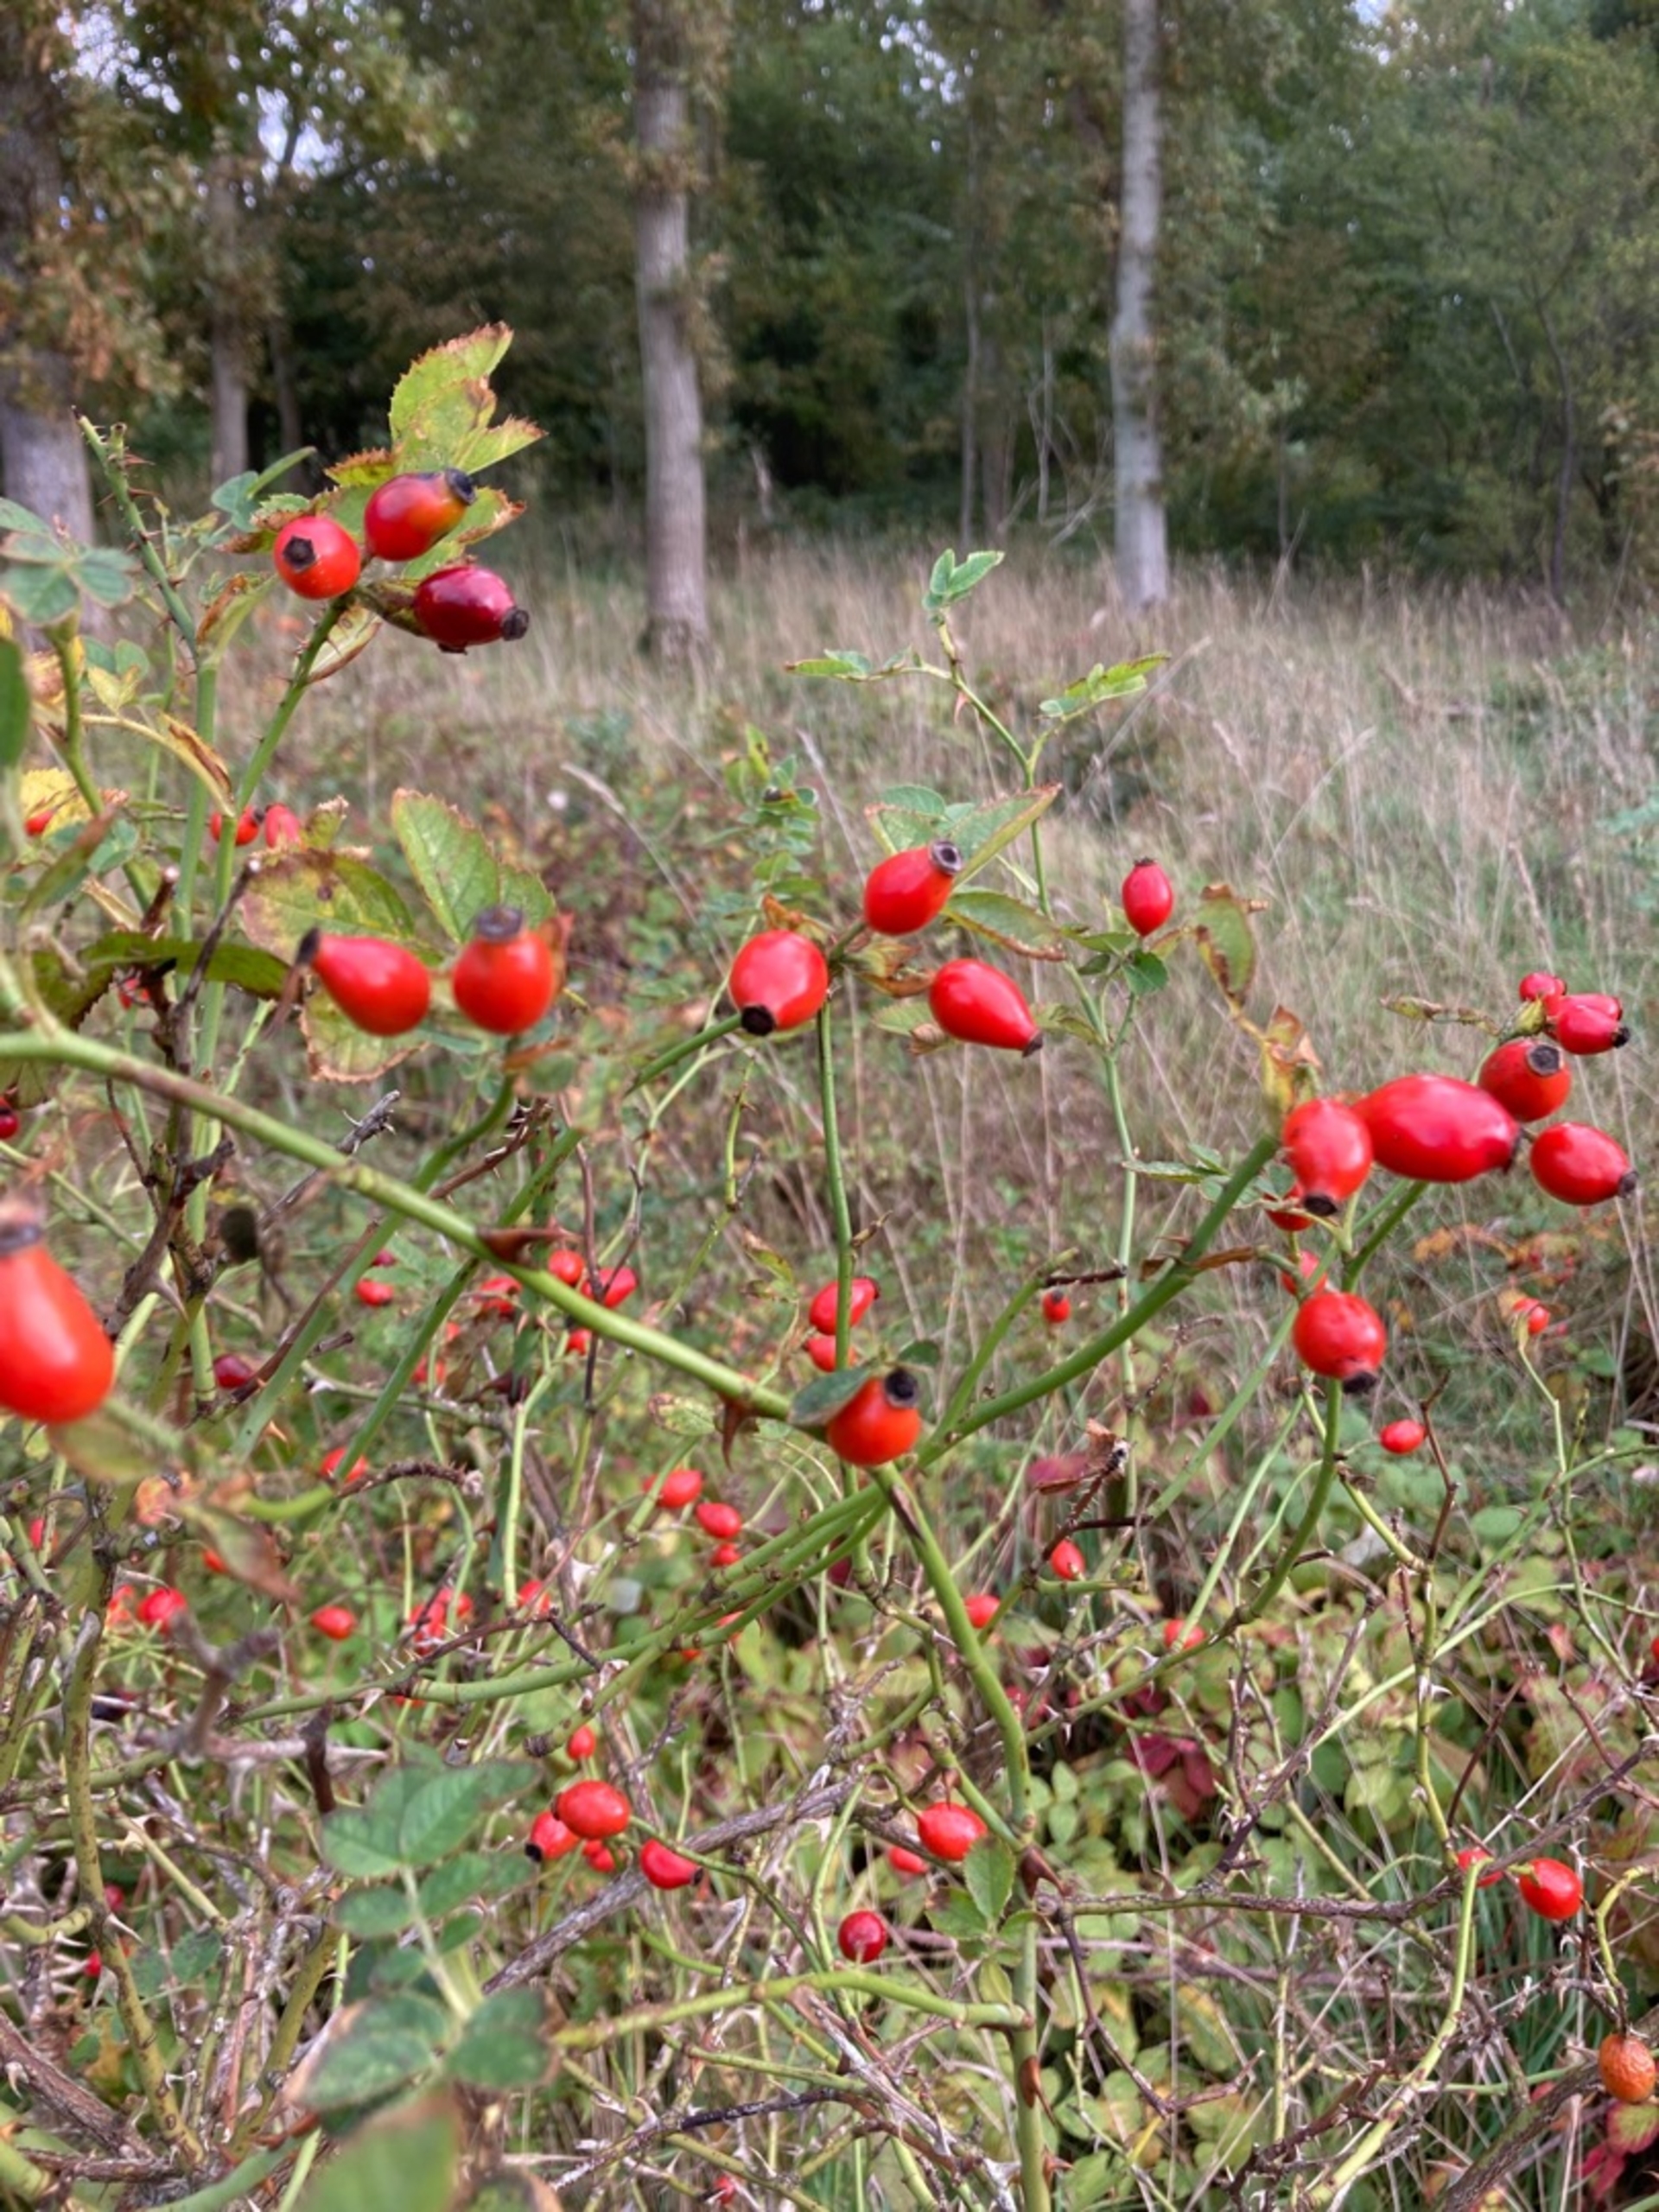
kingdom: Plantae
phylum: Tracheophyta
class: Magnoliopsida
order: Rosales
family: Rosaceae
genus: Rosa
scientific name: Rosa canina
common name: Hunde-rose
